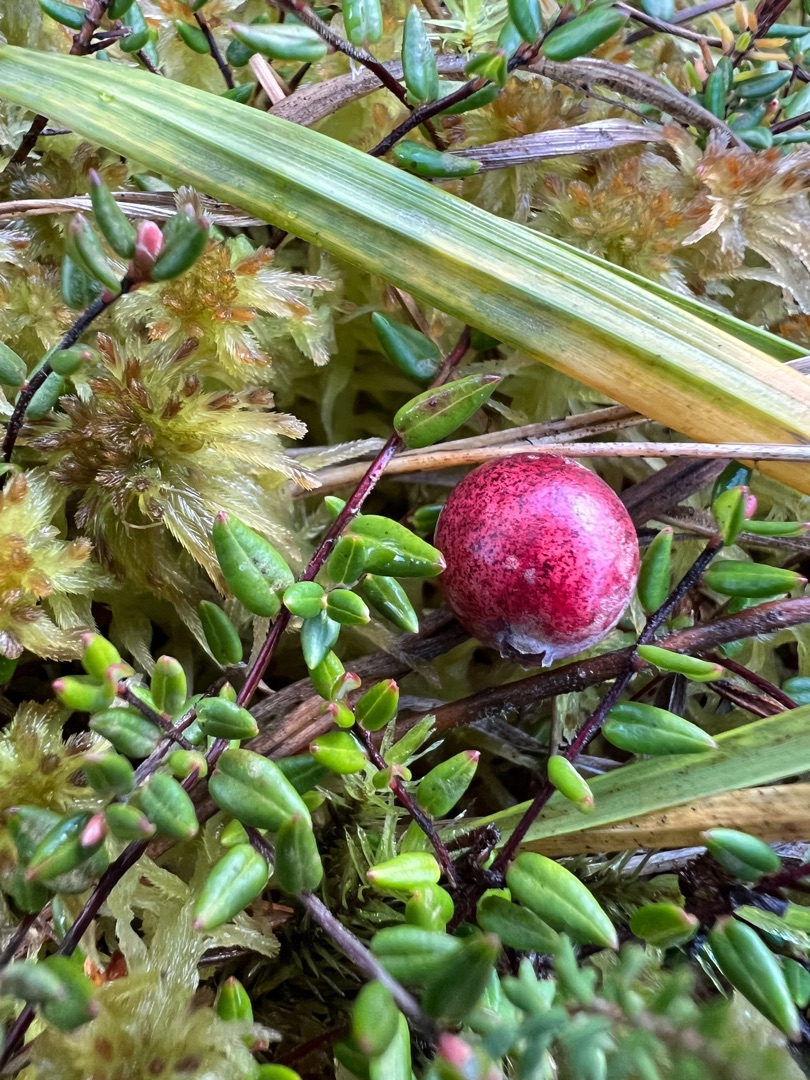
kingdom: Plantae
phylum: Tracheophyta
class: Magnoliopsida
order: Ericales
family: Ericaceae
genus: Vaccinium
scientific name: Vaccinium oxycoccos
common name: Tranebær
